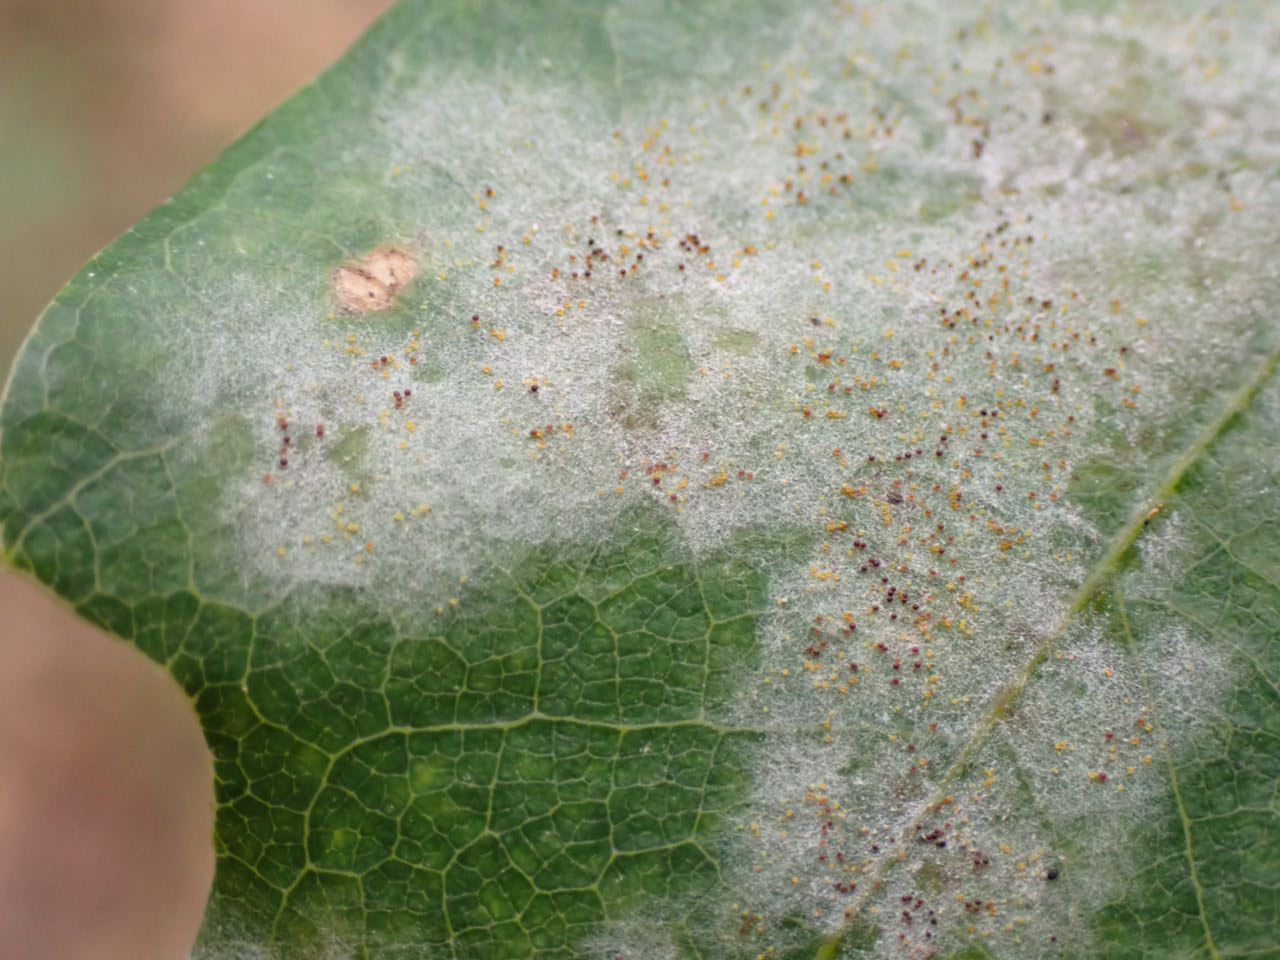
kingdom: Fungi
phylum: Ascomycota
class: Leotiomycetes
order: Helotiales
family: Erysiphaceae
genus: Erysiphe
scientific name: Erysiphe alphitoides
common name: ege-meldug
